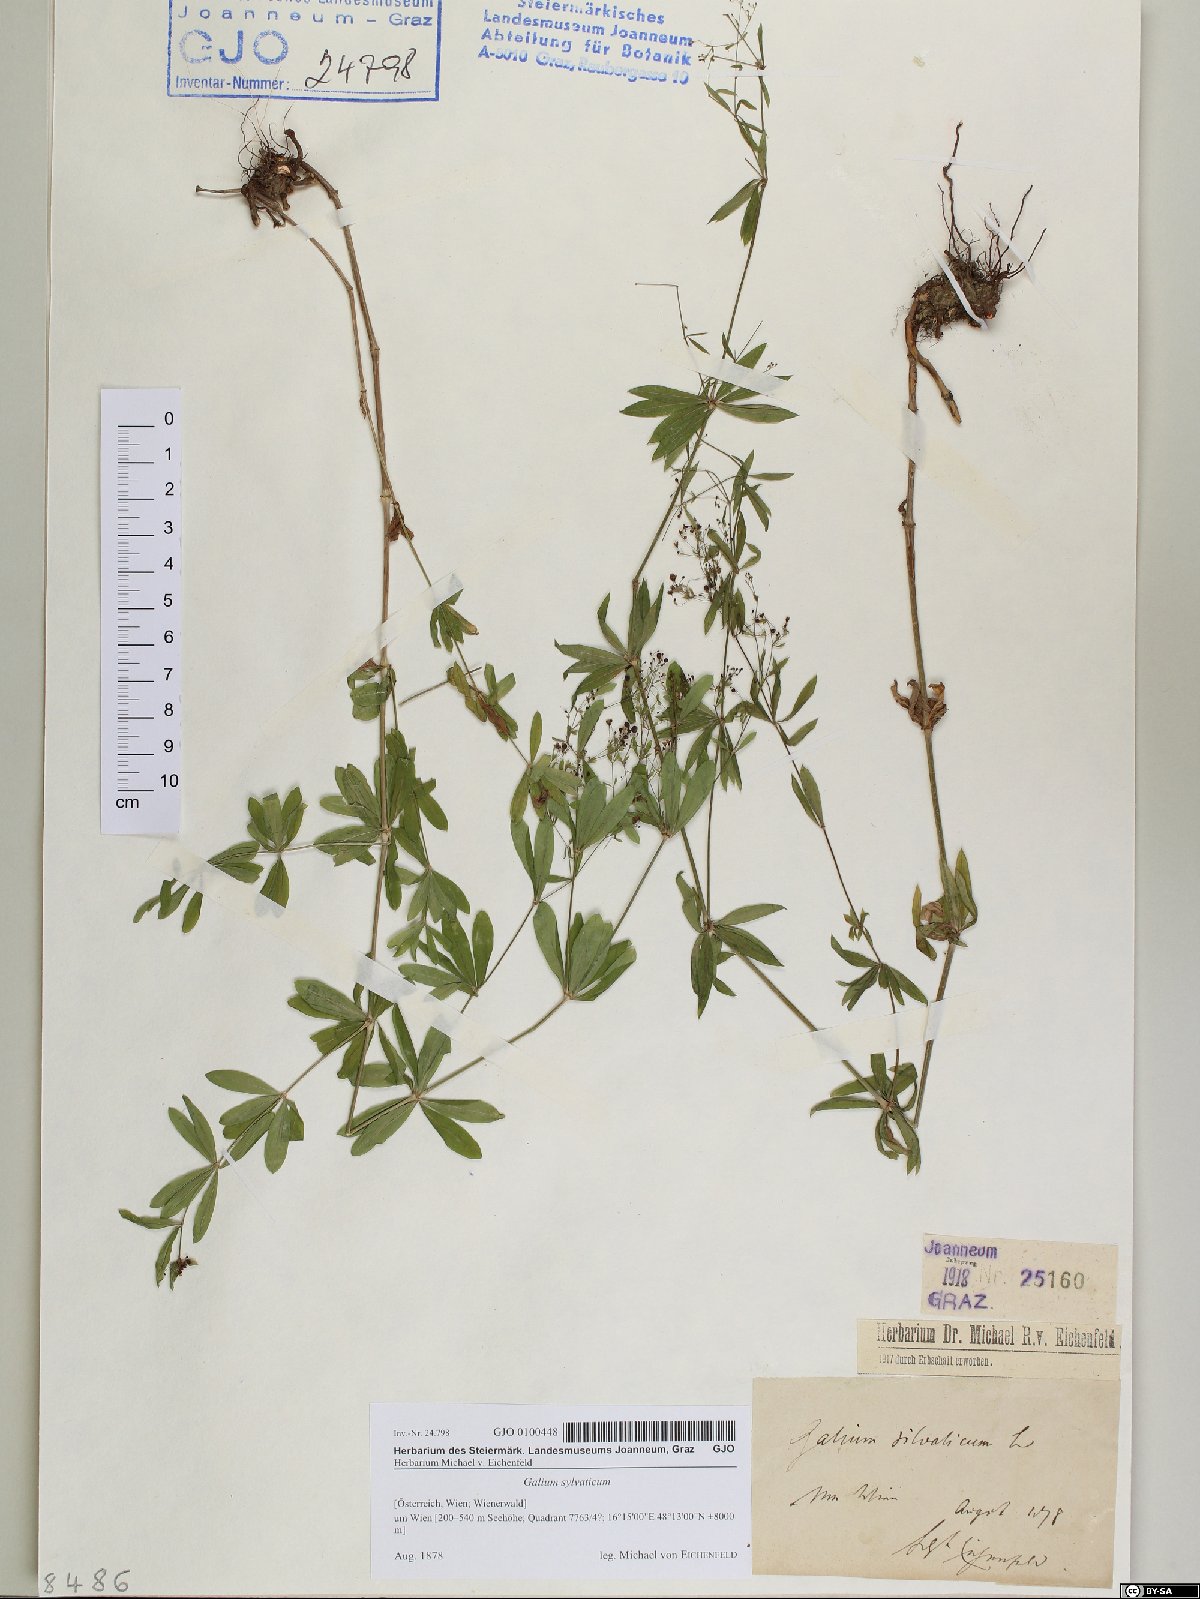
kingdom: Plantae
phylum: Tracheophyta
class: Magnoliopsida
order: Gentianales
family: Rubiaceae
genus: Galium
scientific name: Galium sylvaticum
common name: Wood bedstraw
